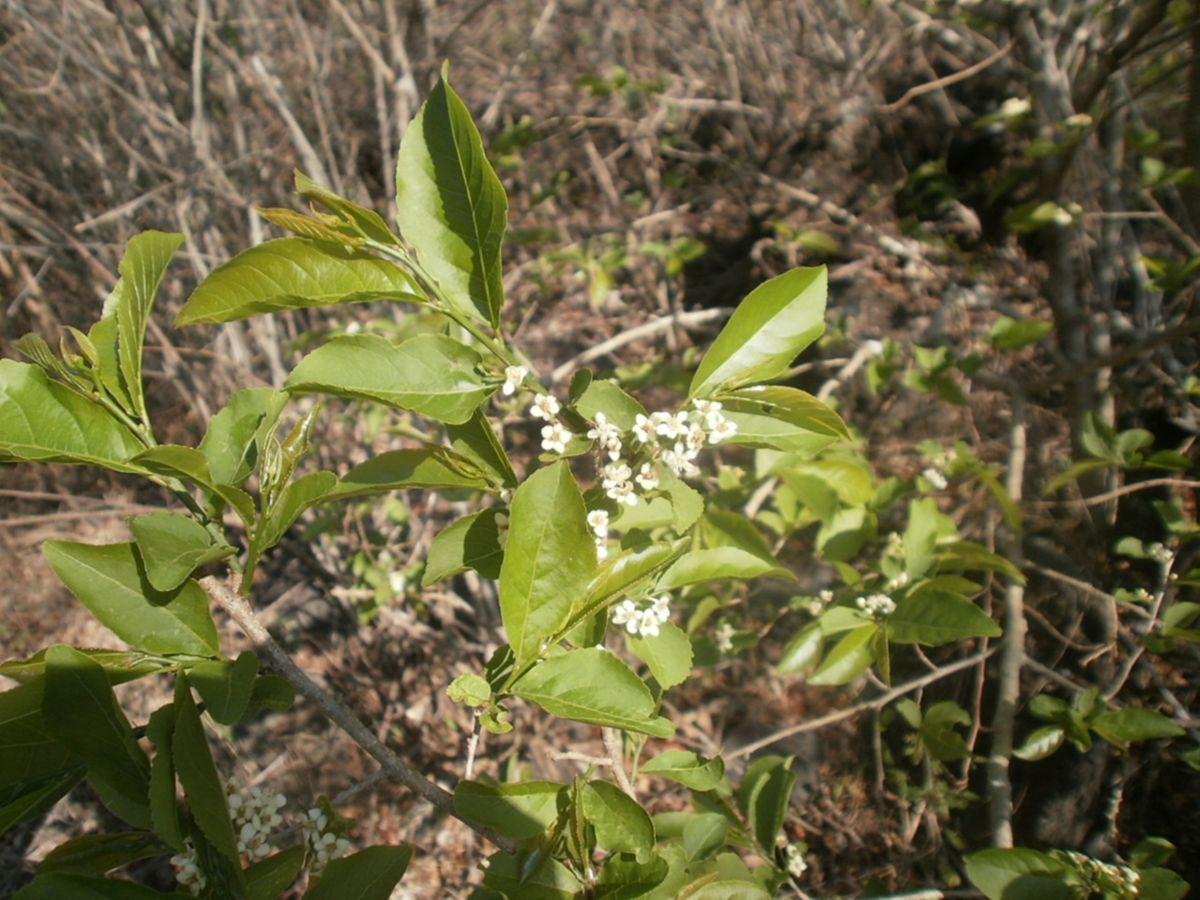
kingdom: Plantae
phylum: Tracheophyta
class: Magnoliopsida
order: Malpighiales
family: Salicaceae
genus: Casearia
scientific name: Casearia corymbosa
